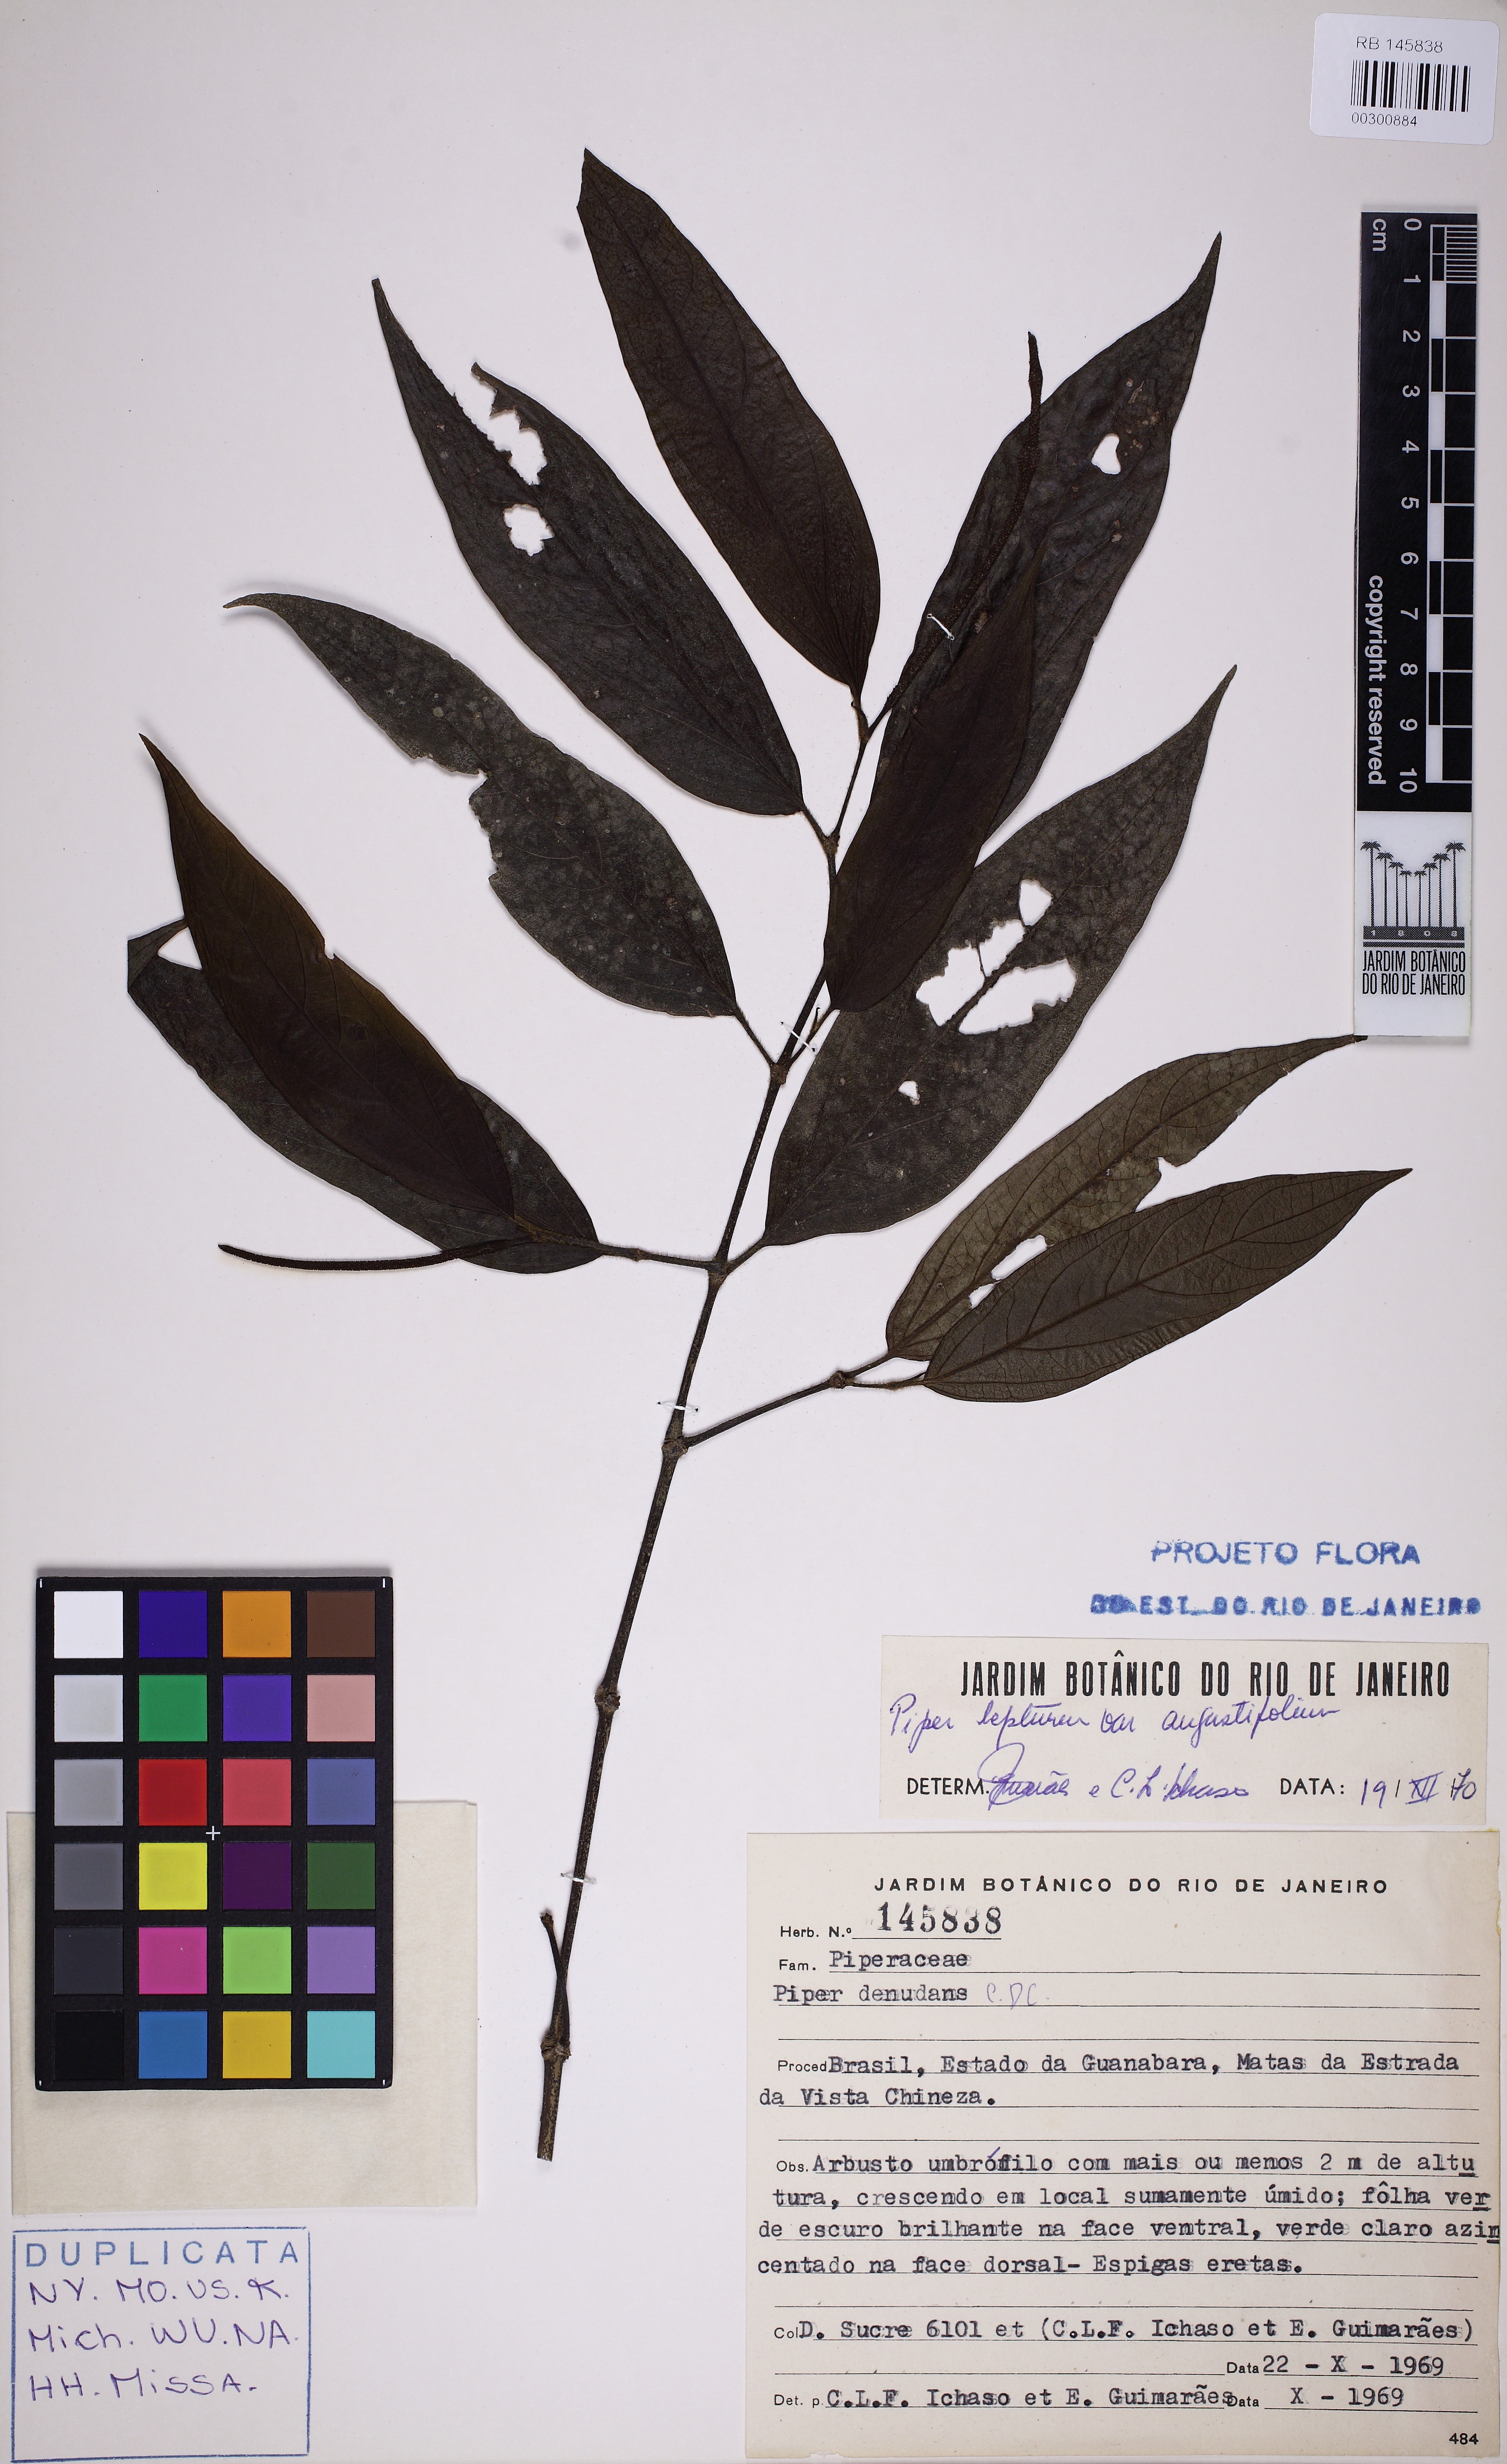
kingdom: Plantae
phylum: Tracheophyta
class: Magnoliopsida
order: Piperales
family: Piperaceae
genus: Piper
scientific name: Piper lepturum
